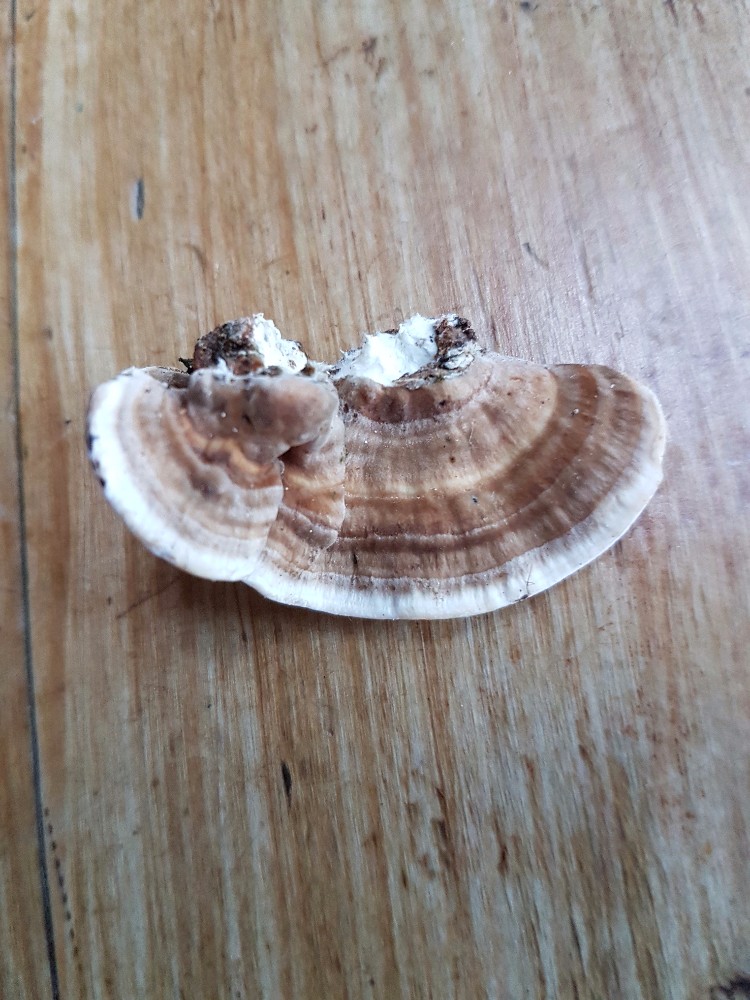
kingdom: Fungi
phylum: Basidiomycota
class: Agaricomycetes
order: Polyporales
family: Polyporaceae
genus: Trametes
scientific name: Trametes versicolor
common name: broget læderporesvamp
